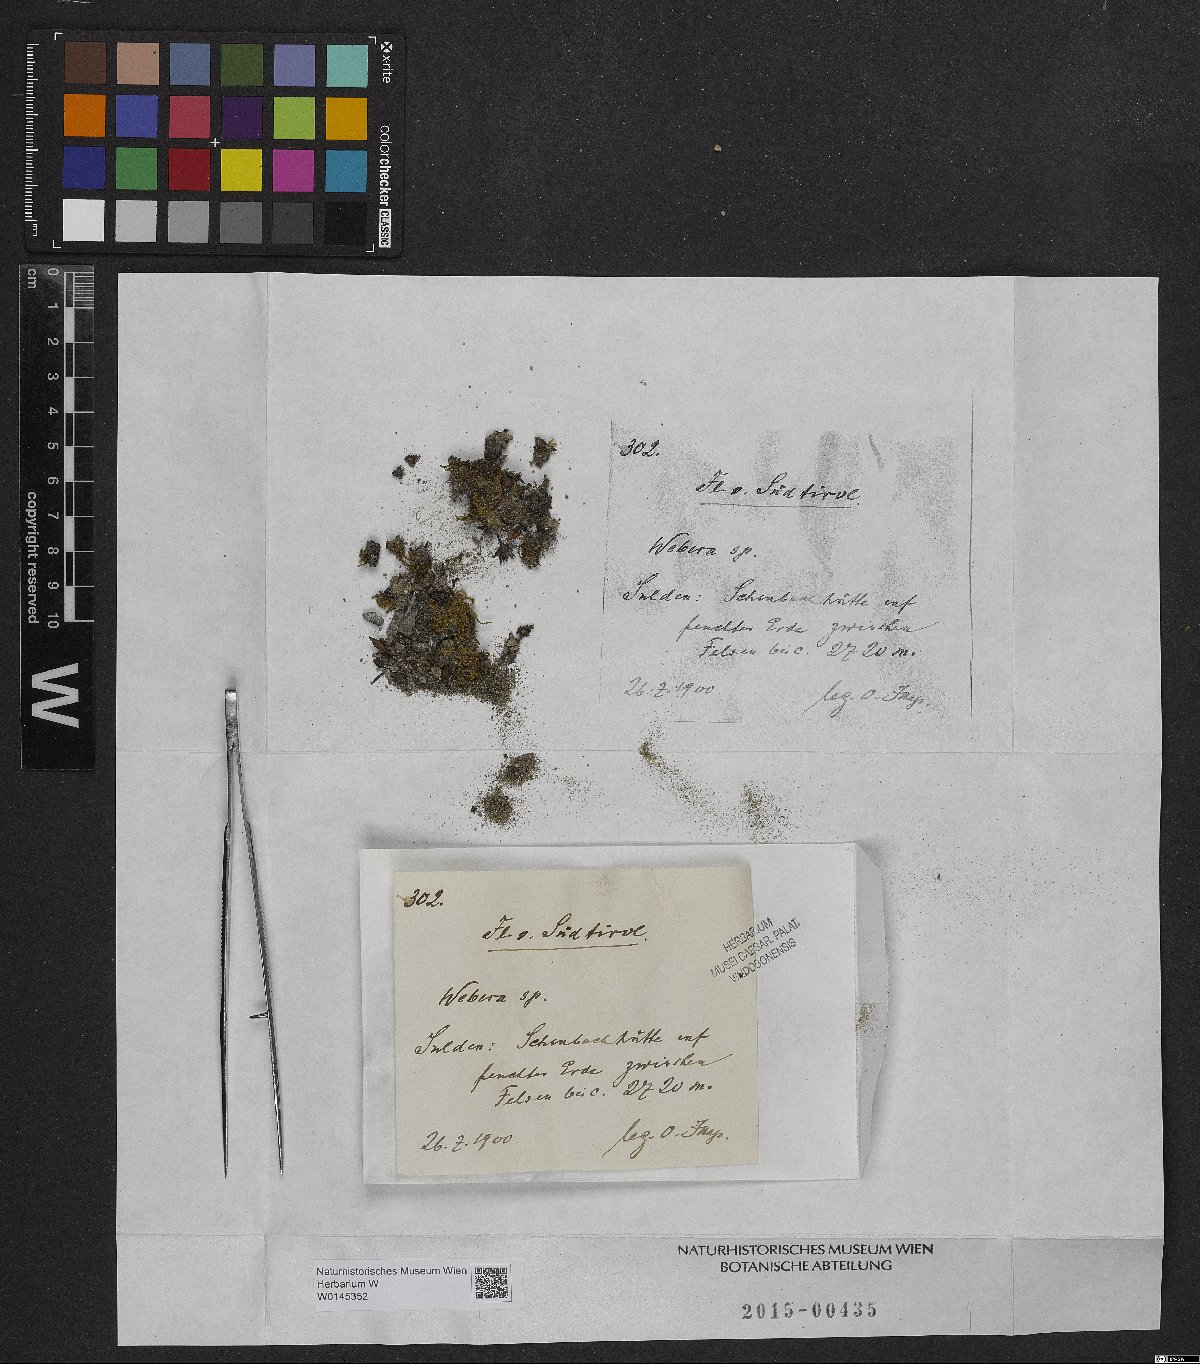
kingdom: Plantae
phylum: Tracheophyta
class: Magnoliopsida
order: Gentianales
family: Rubiaceae
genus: Webera
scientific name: Webera
